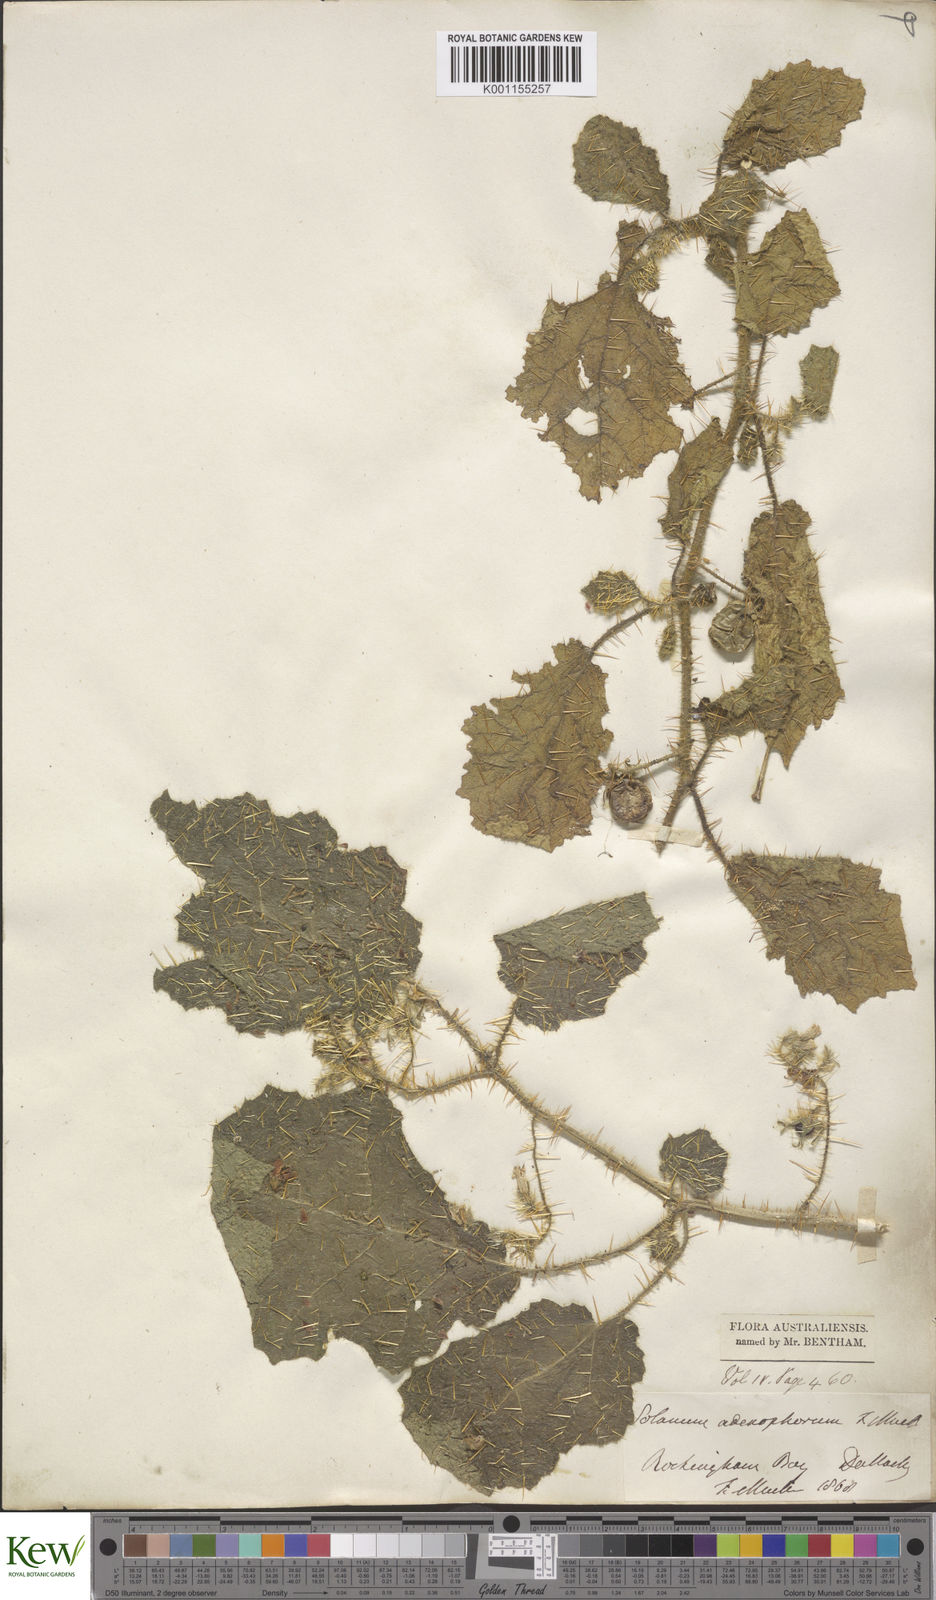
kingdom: Plantae
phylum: Tracheophyta
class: Magnoliopsida
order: Solanales
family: Solanaceae
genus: Solanum
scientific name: Solanum
